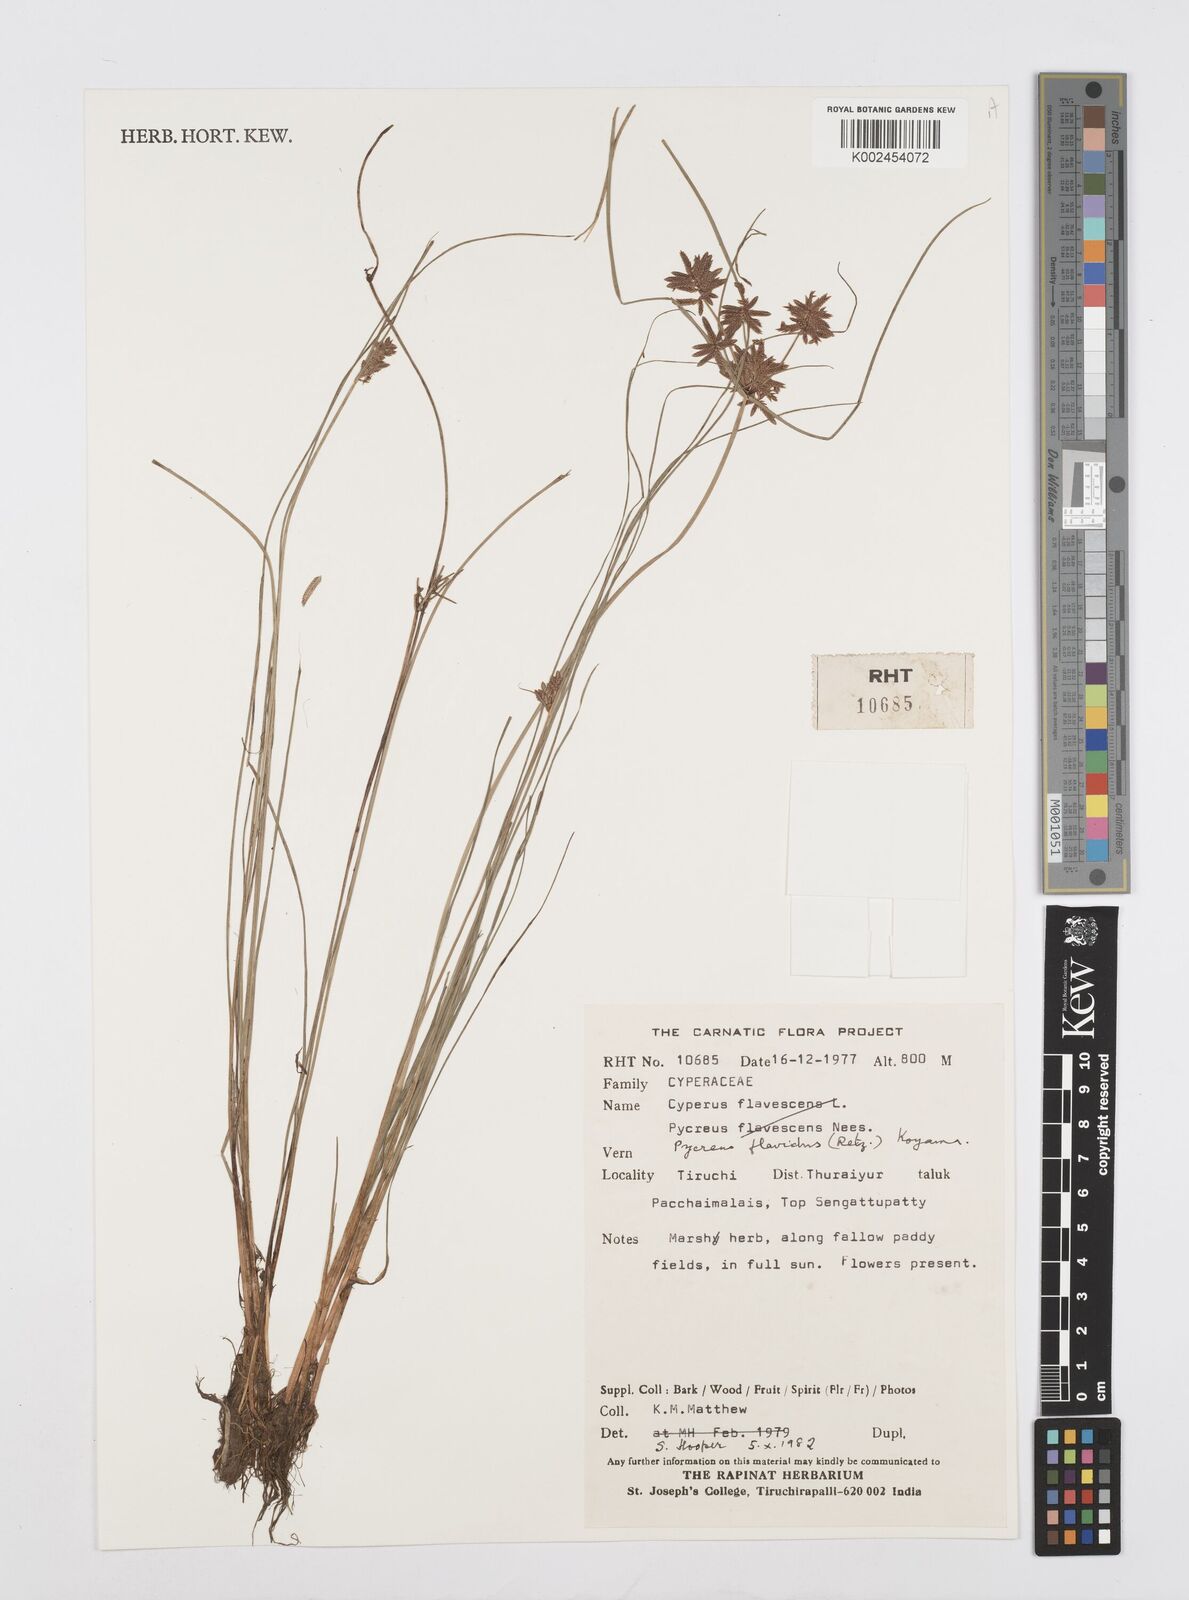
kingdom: Plantae
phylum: Tracheophyta
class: Liliopsida
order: Poales
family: Cyperaceae
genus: Cyperus
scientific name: Cyperus flavidus
